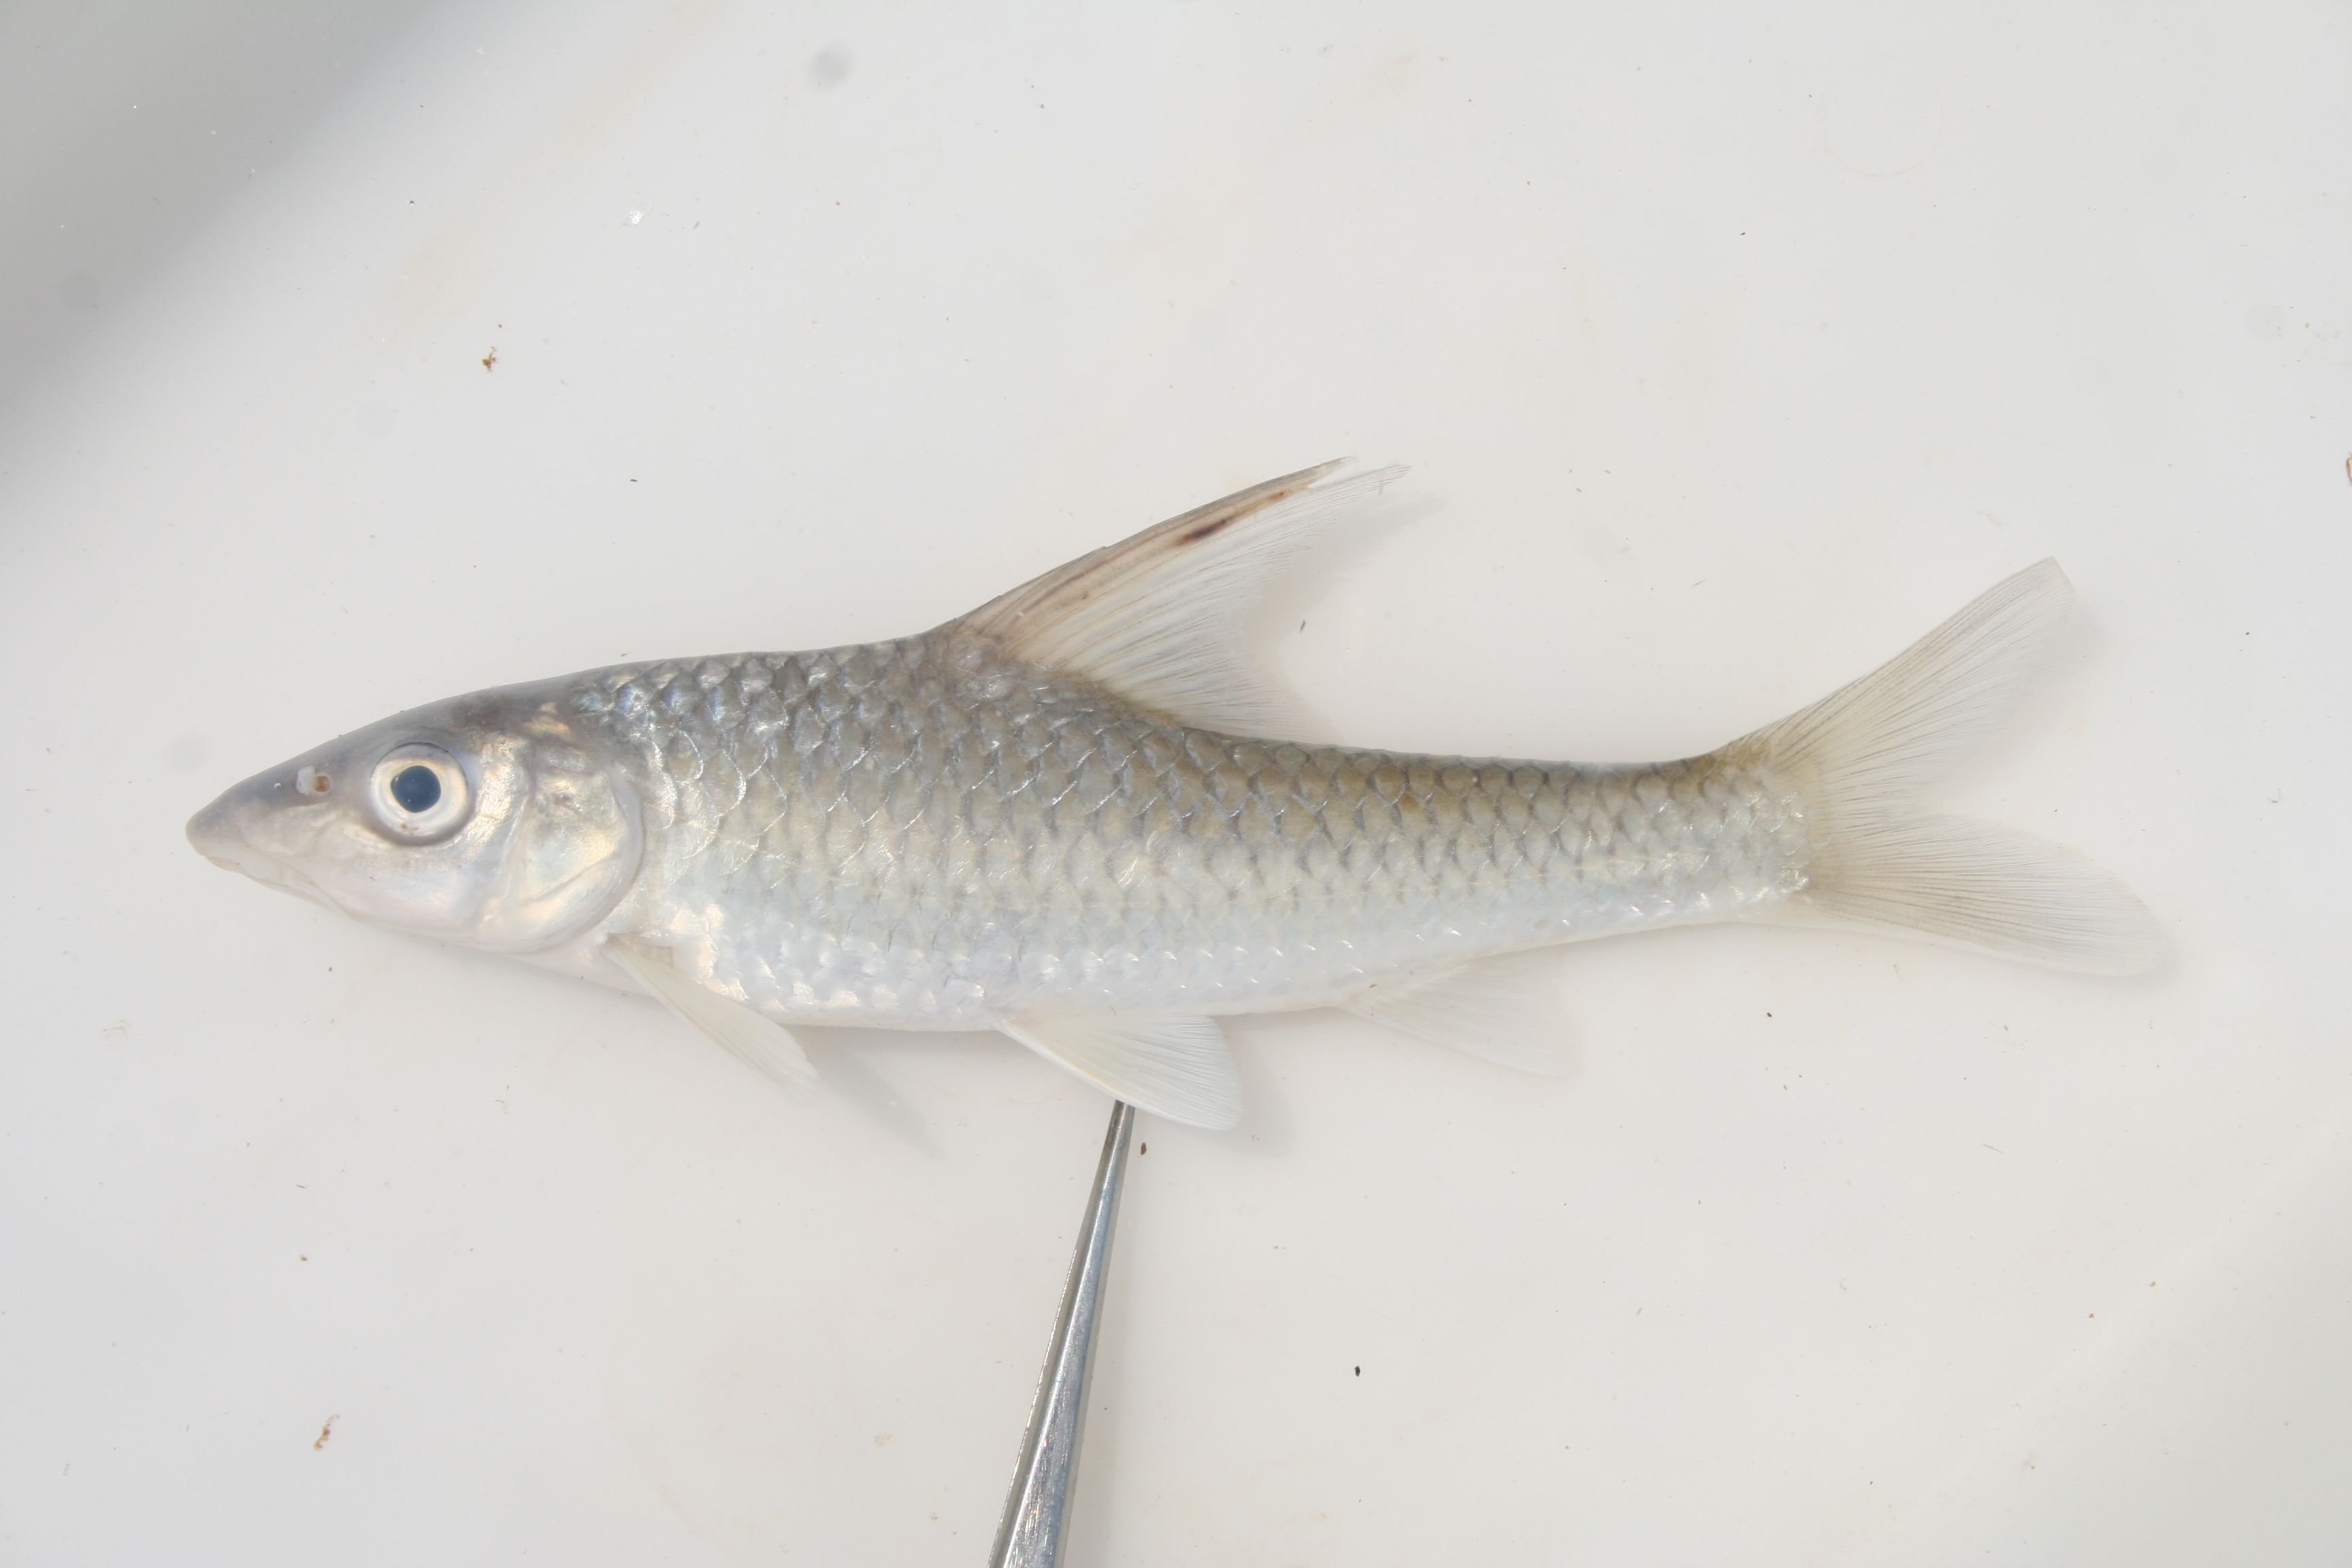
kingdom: Animalia
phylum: Chordata
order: Cypriniformes
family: Cyprinidae
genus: Labeobarbus
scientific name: Labeobarbus rhinophorus
